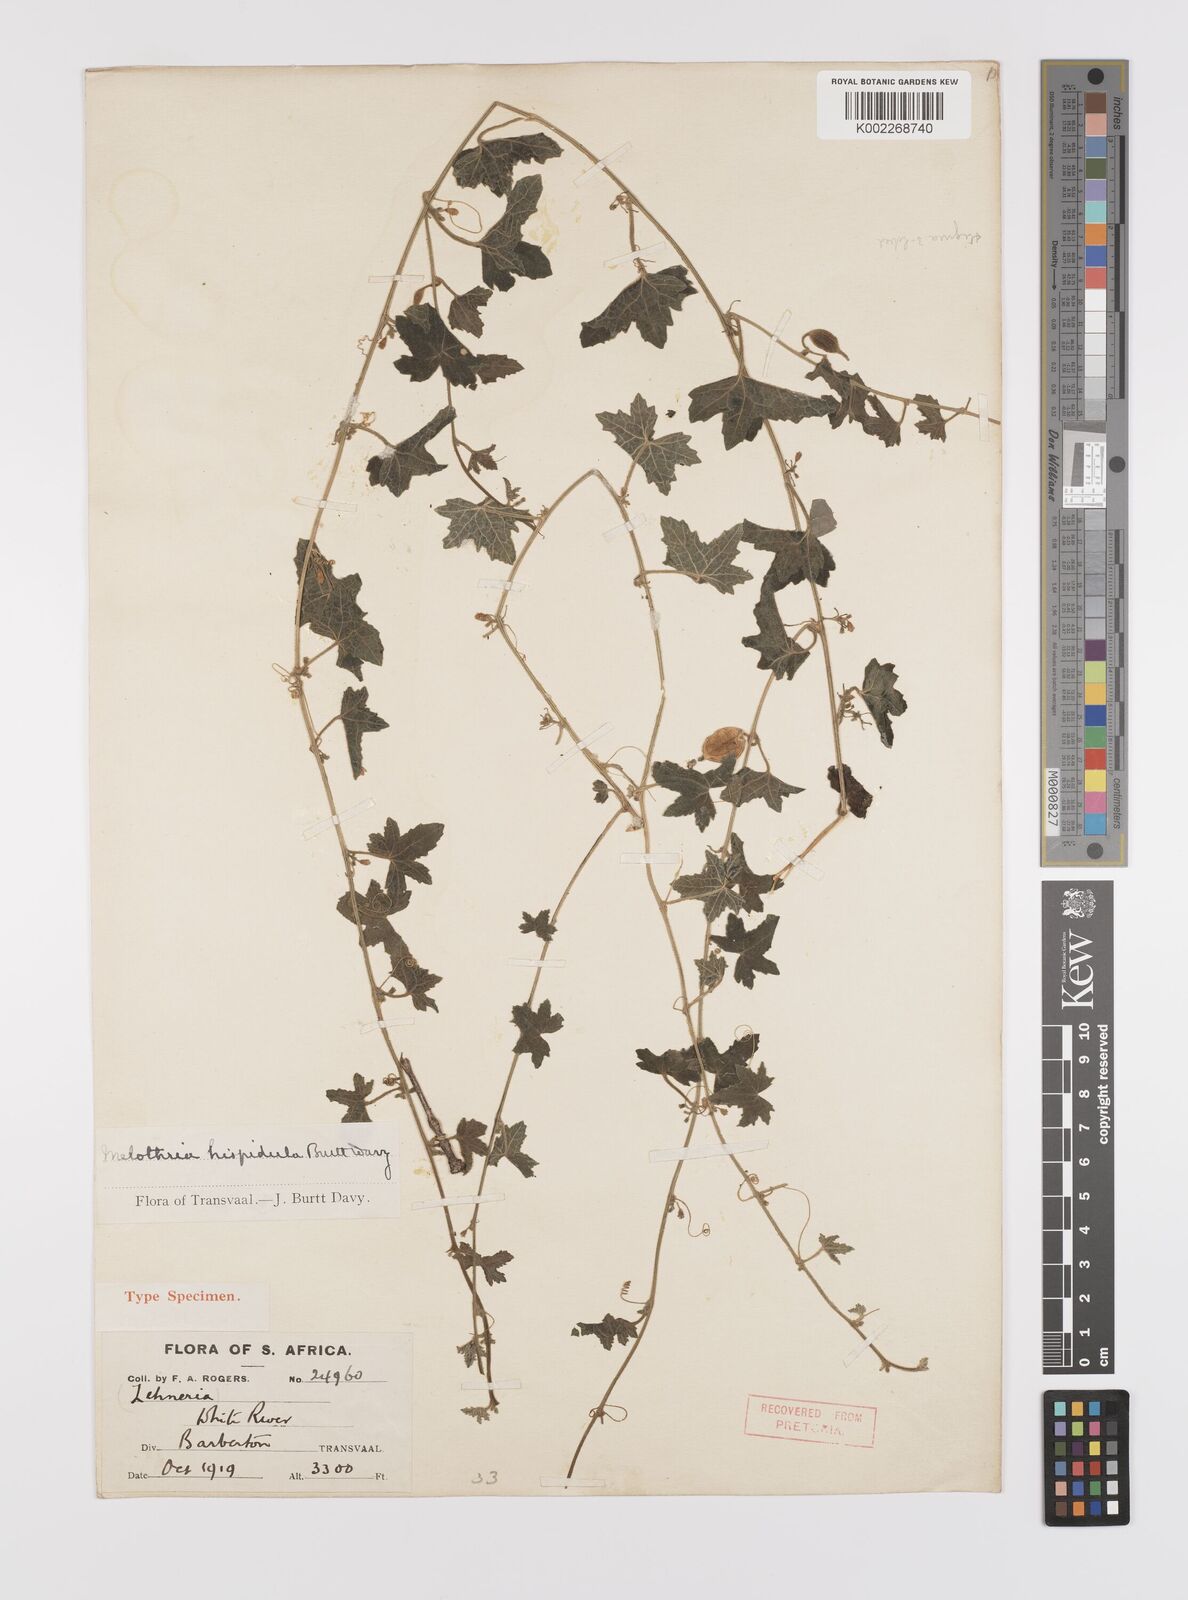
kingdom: Plantae
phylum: Tracheophyta
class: Magnoliopsida
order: Cucurbitales
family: Cucurbitaceae
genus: Cucumis
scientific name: Cucumis cinereus
